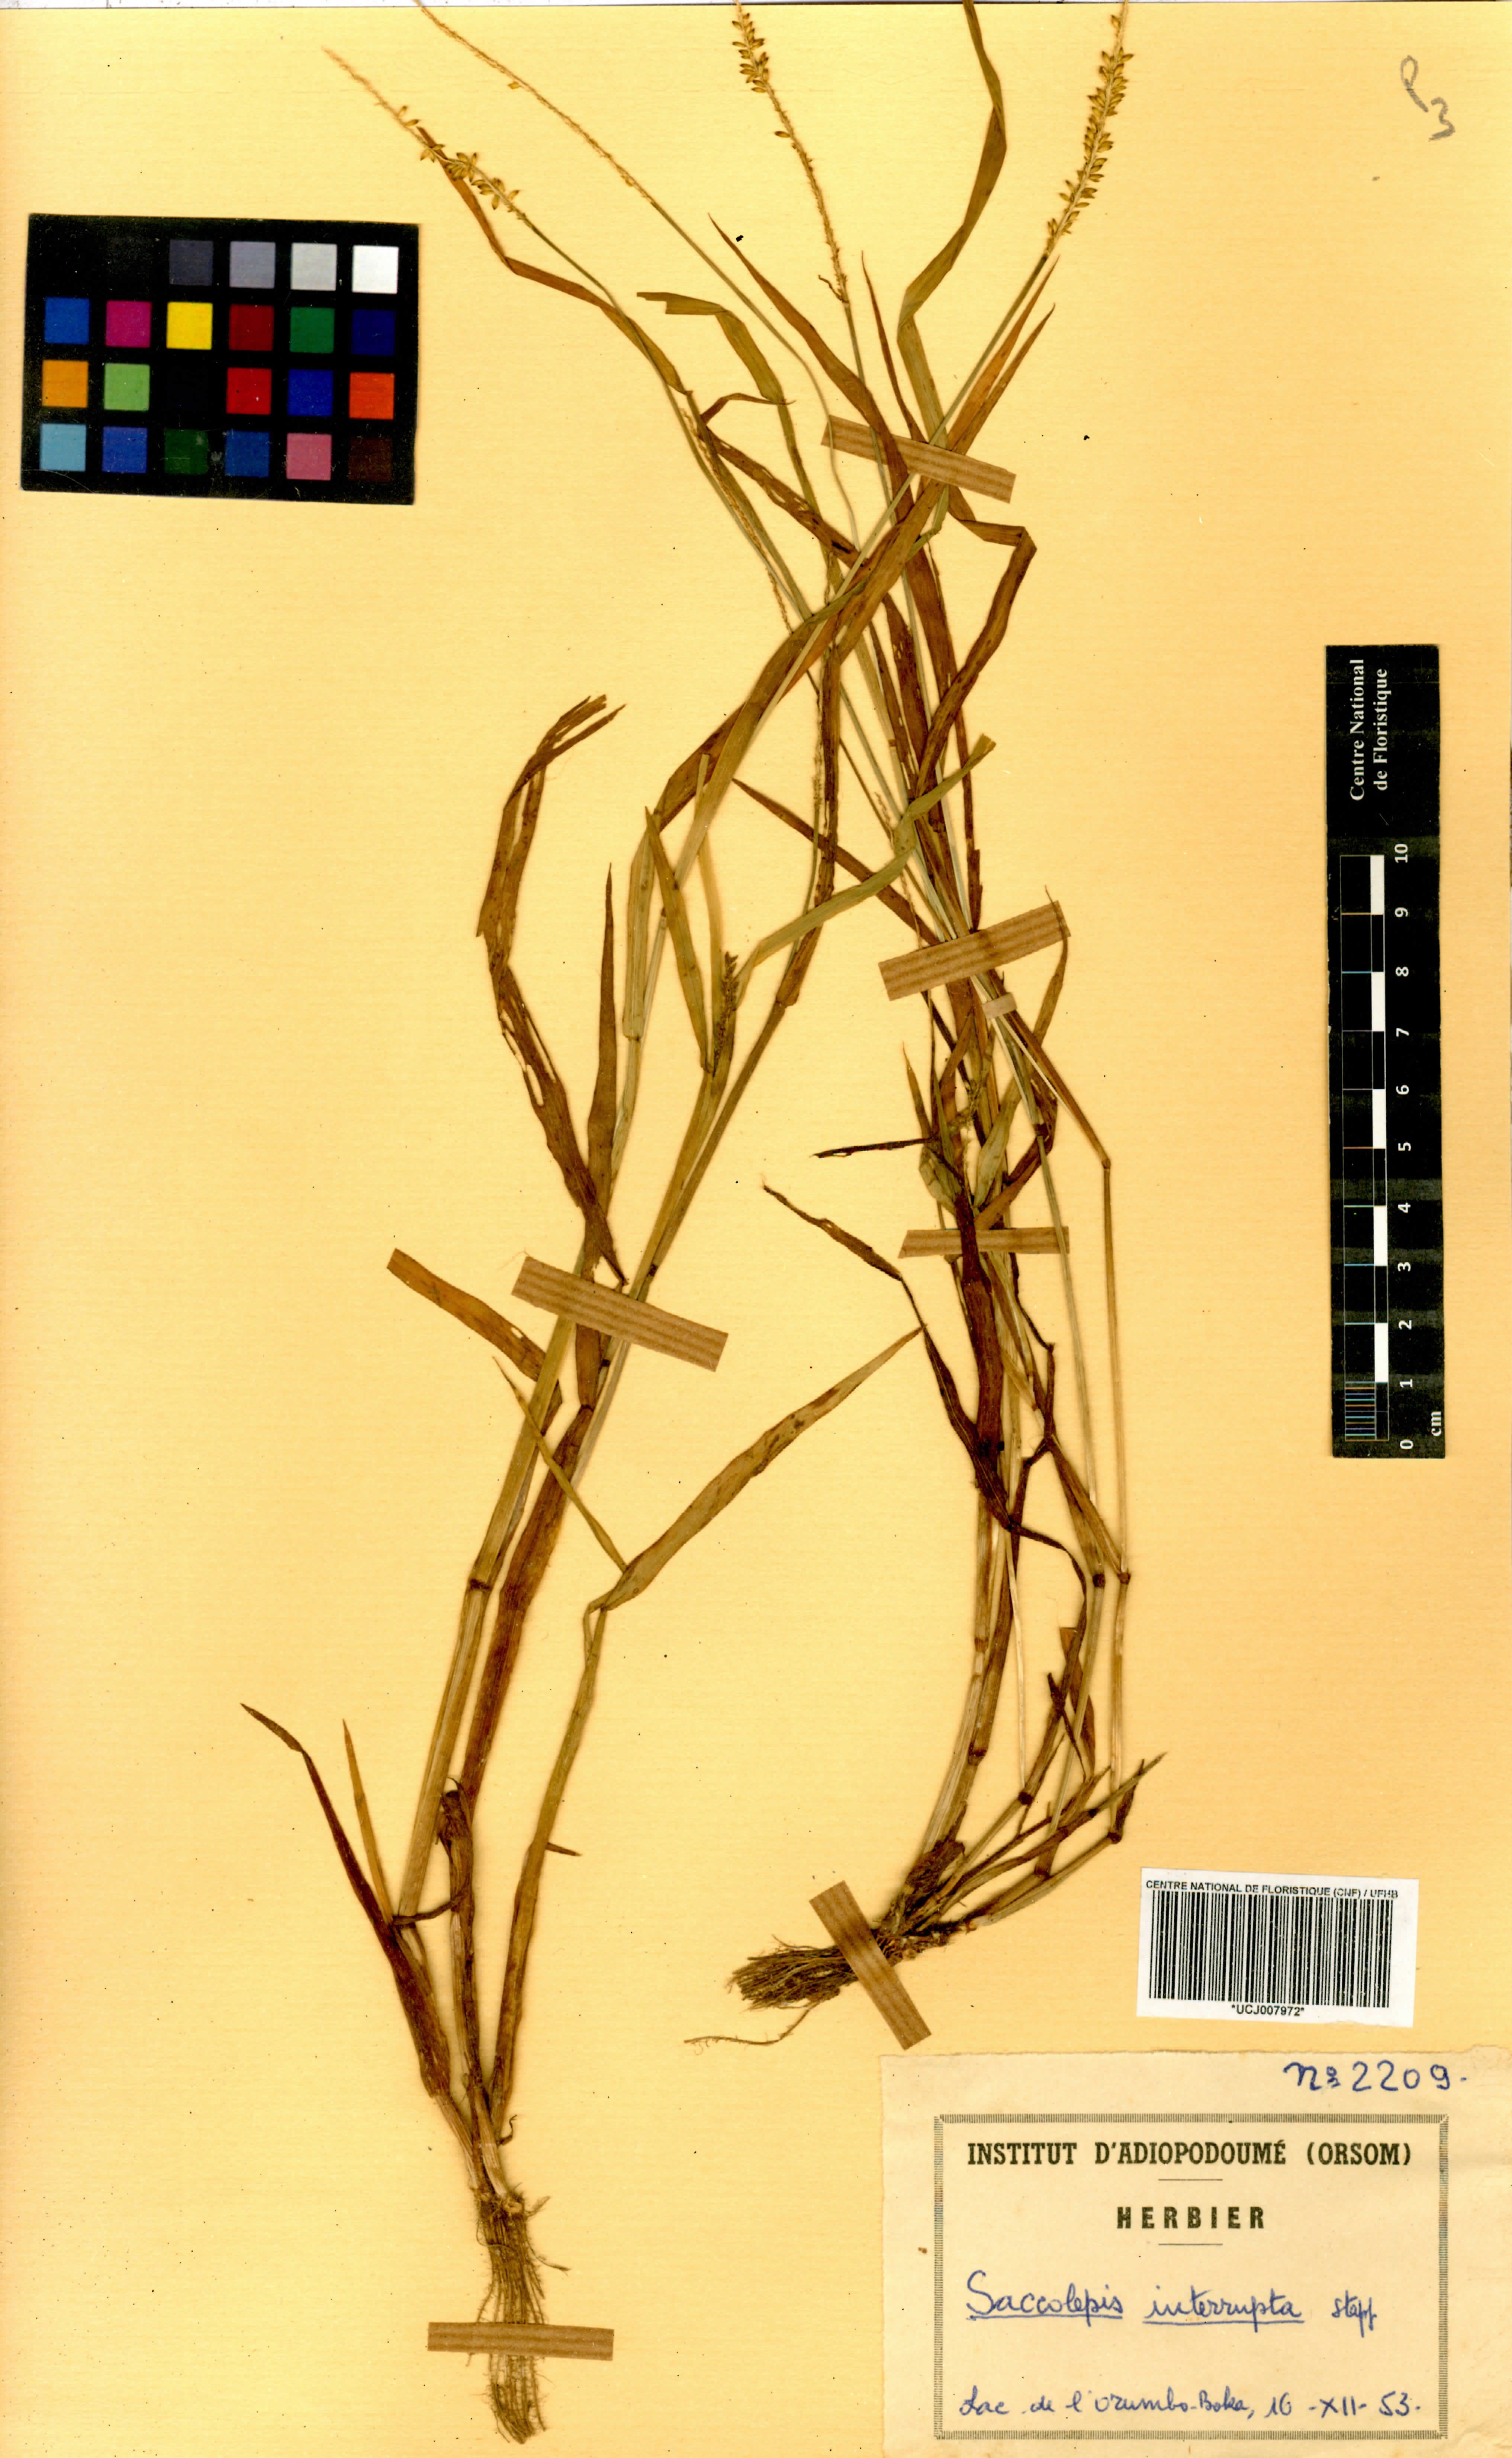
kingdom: Plantae
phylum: Tracheophyta
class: Liliopsida
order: Poales
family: Poaceae
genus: Sacciolepis
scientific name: Sacciolepis interrupta
